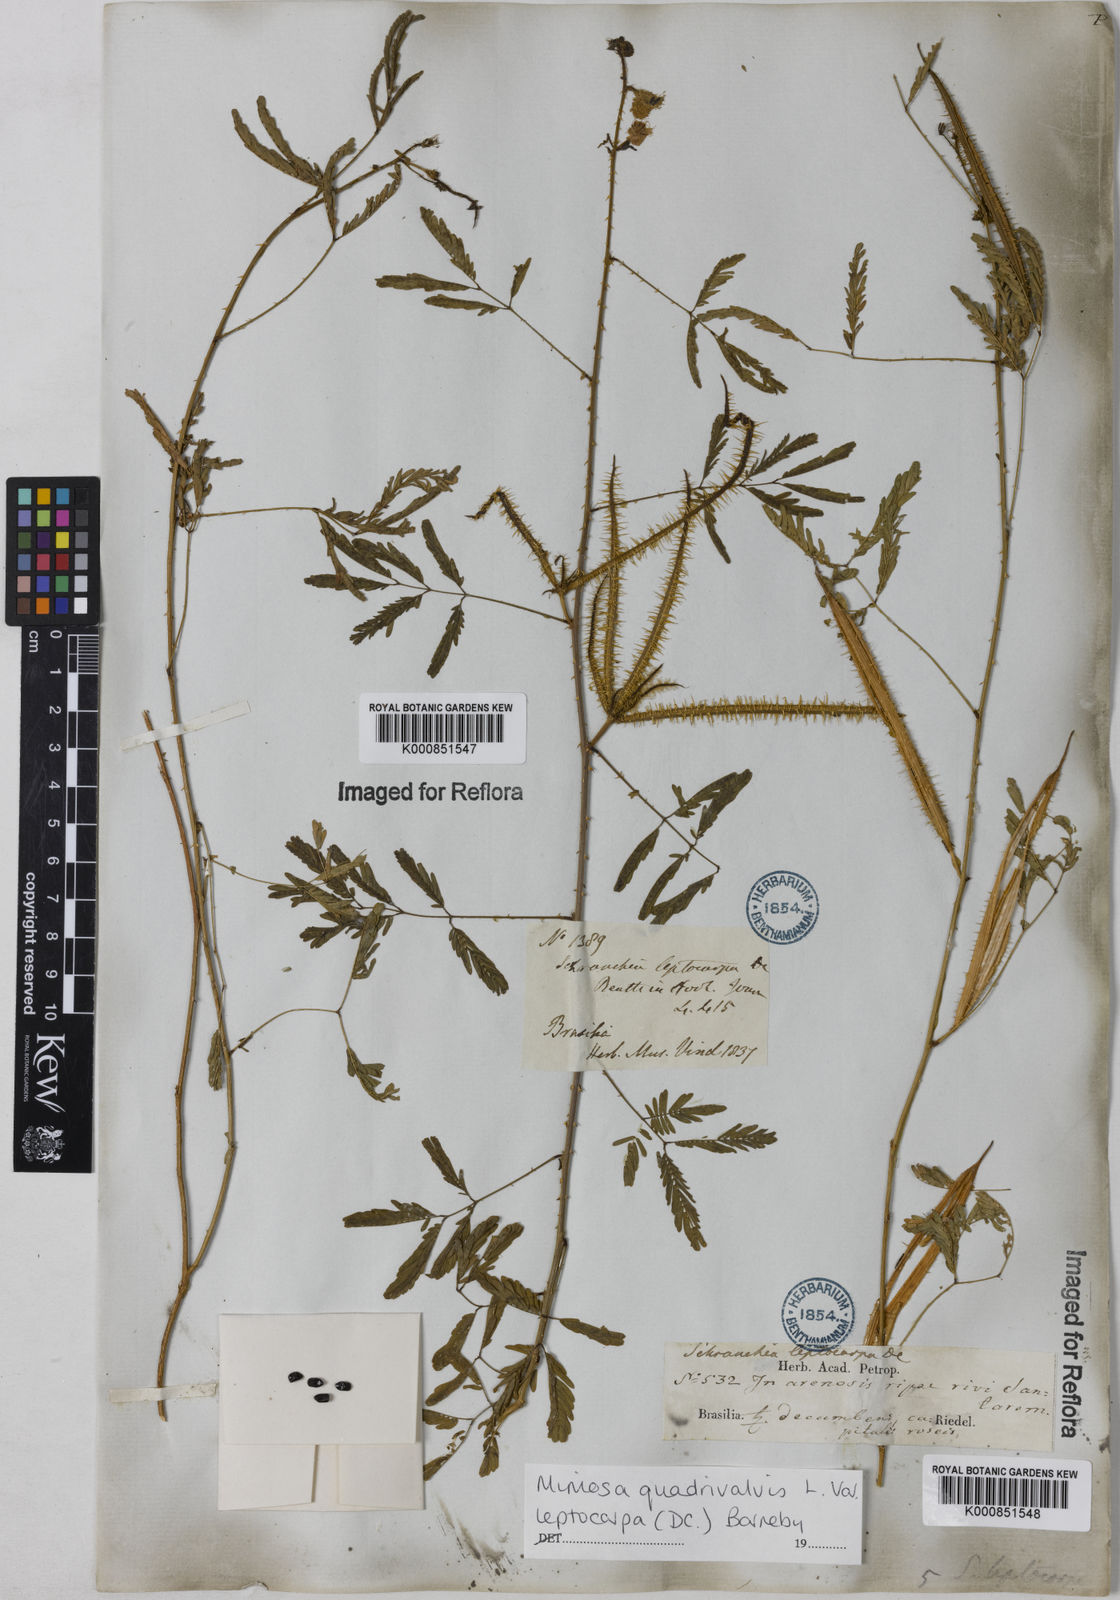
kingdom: Plantae
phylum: Tracheophyta
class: Magnoliopsida
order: Fabales
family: Fabaceae
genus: Mimosa
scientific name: Mimosa candollei
